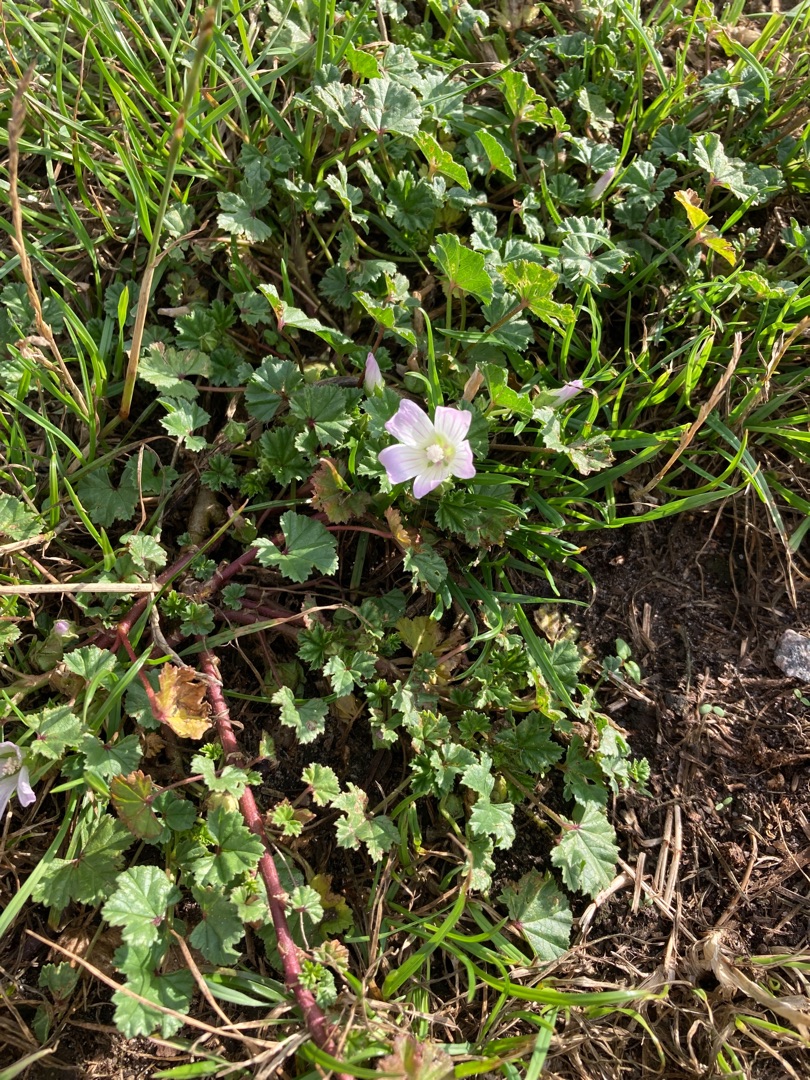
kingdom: Plantae
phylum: Tracheophyta
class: Magnoliopsida
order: Malvales
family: Malvaceae
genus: Malva
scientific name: Malva neglecta
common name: Rundbladet katost
